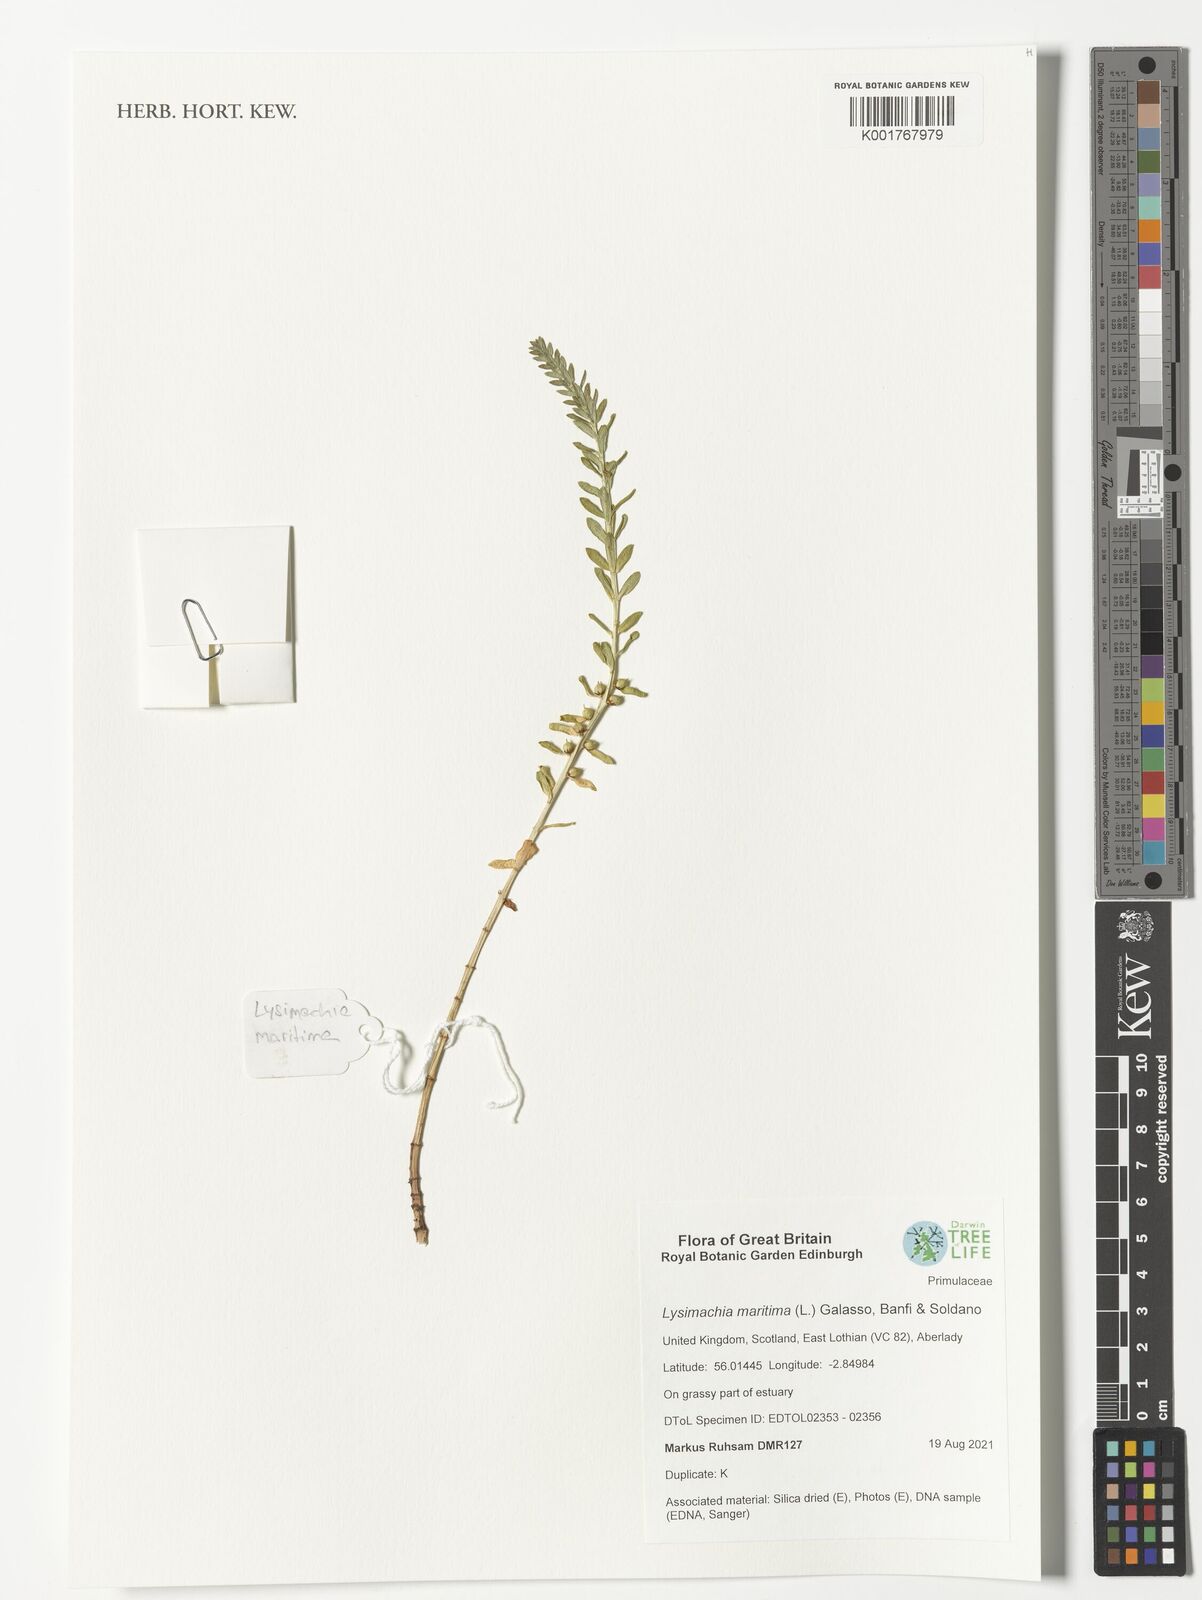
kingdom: Plantae
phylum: Tracheophyta
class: Magnoliopsida
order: Ericales
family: Primulaceae
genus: Lysimachia
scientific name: Lysimachia maritima
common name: Sea milkwort
